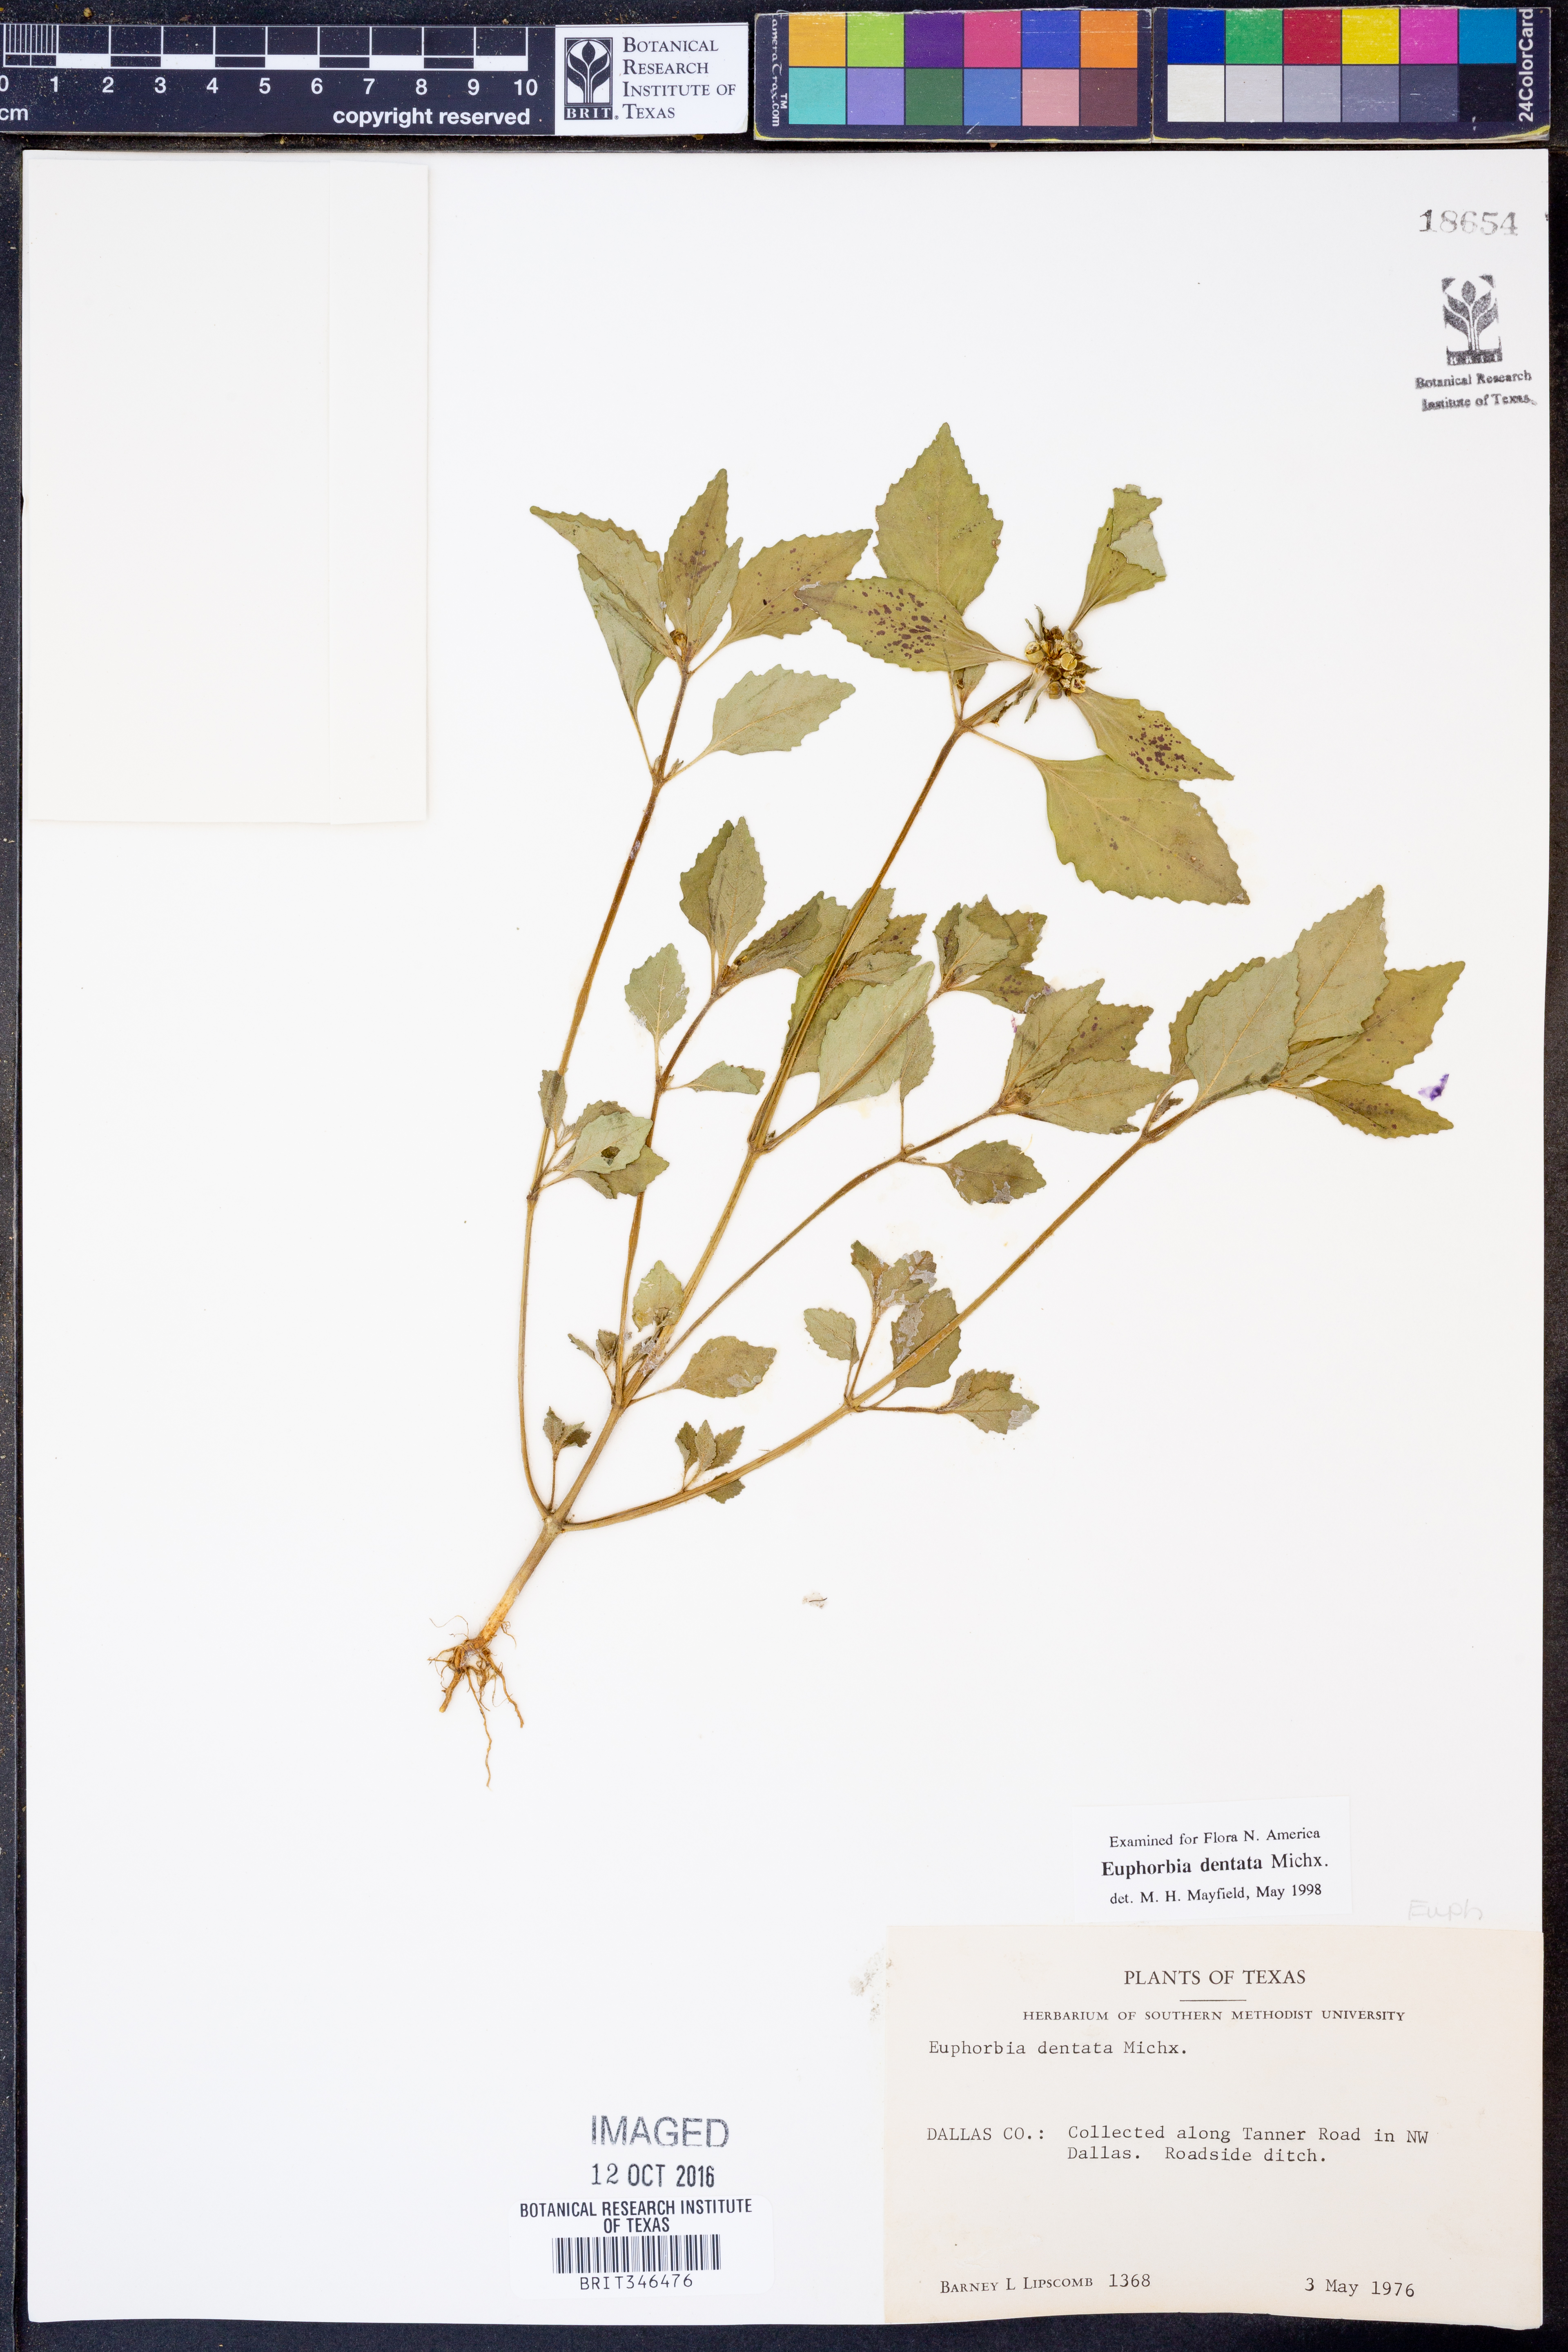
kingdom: Plantae
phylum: Tracheophyta
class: Magnoliopsida
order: Malpighiales
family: Euphorbiaceae
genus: Euphorbia
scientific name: Euphorbia dentata
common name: Dentate spurge
